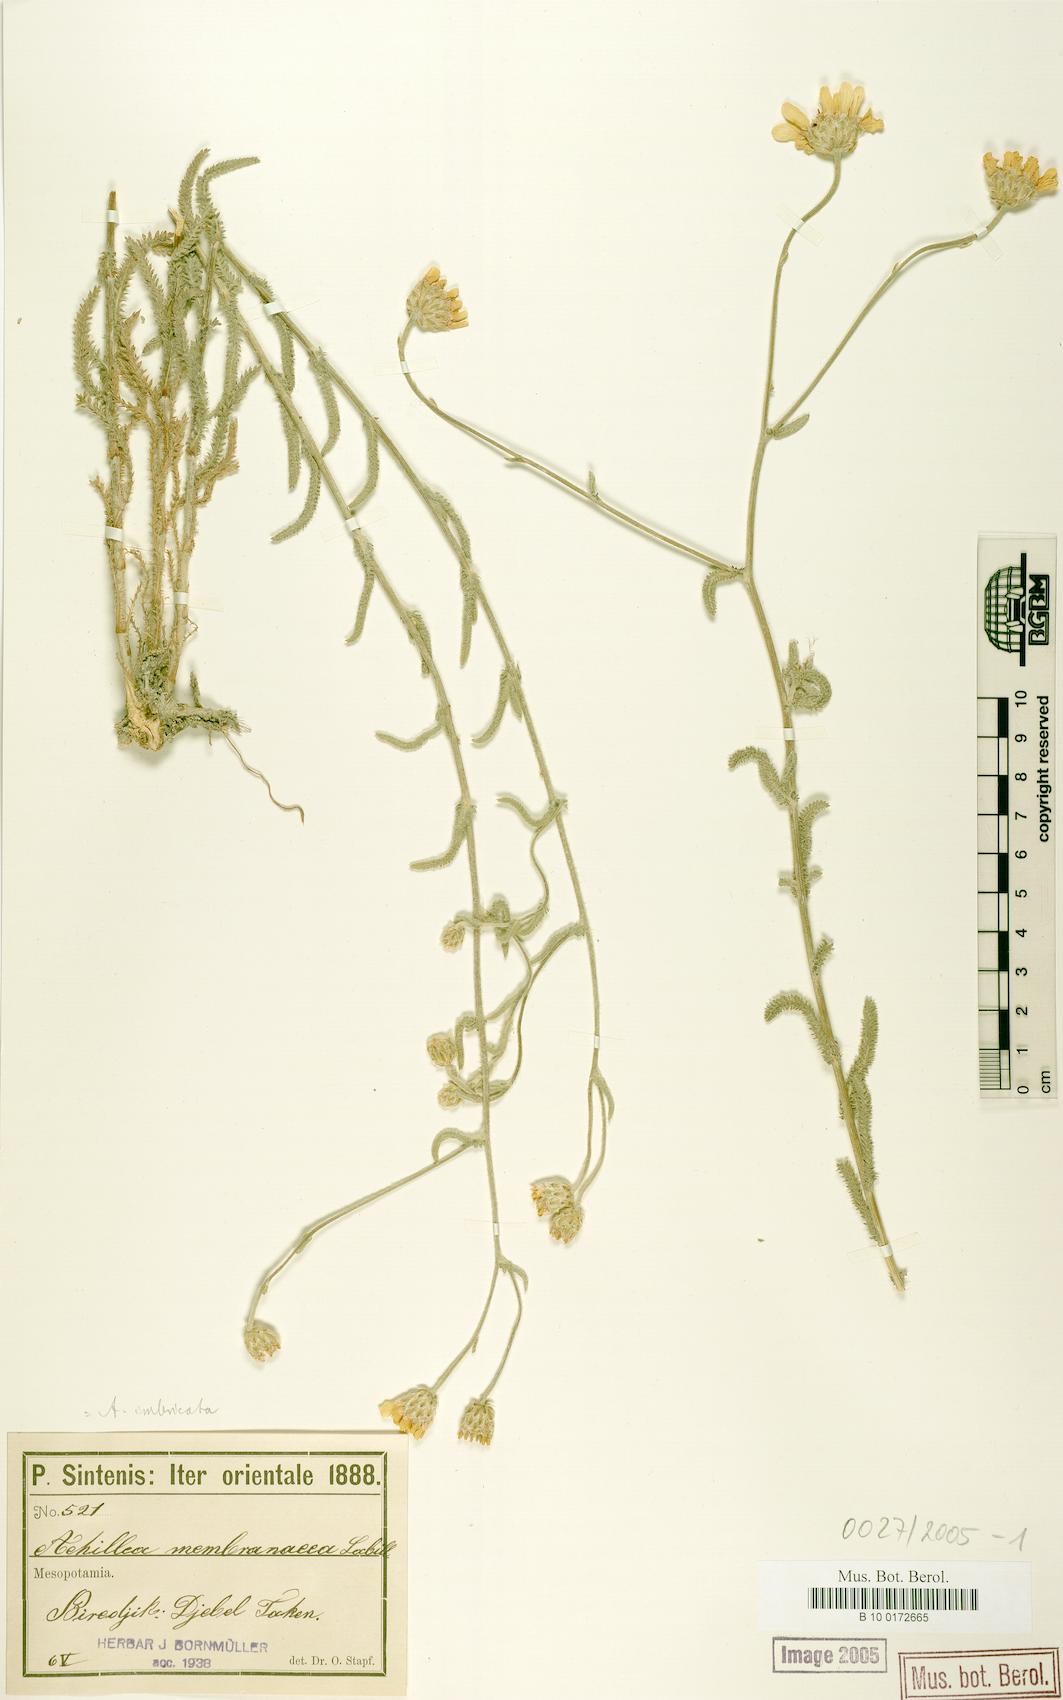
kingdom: Plantae
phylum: Tracheophyta
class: Magnoliopsida
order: Asterales
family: Asteraceae
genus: Achillea
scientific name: Achillea membranacea
